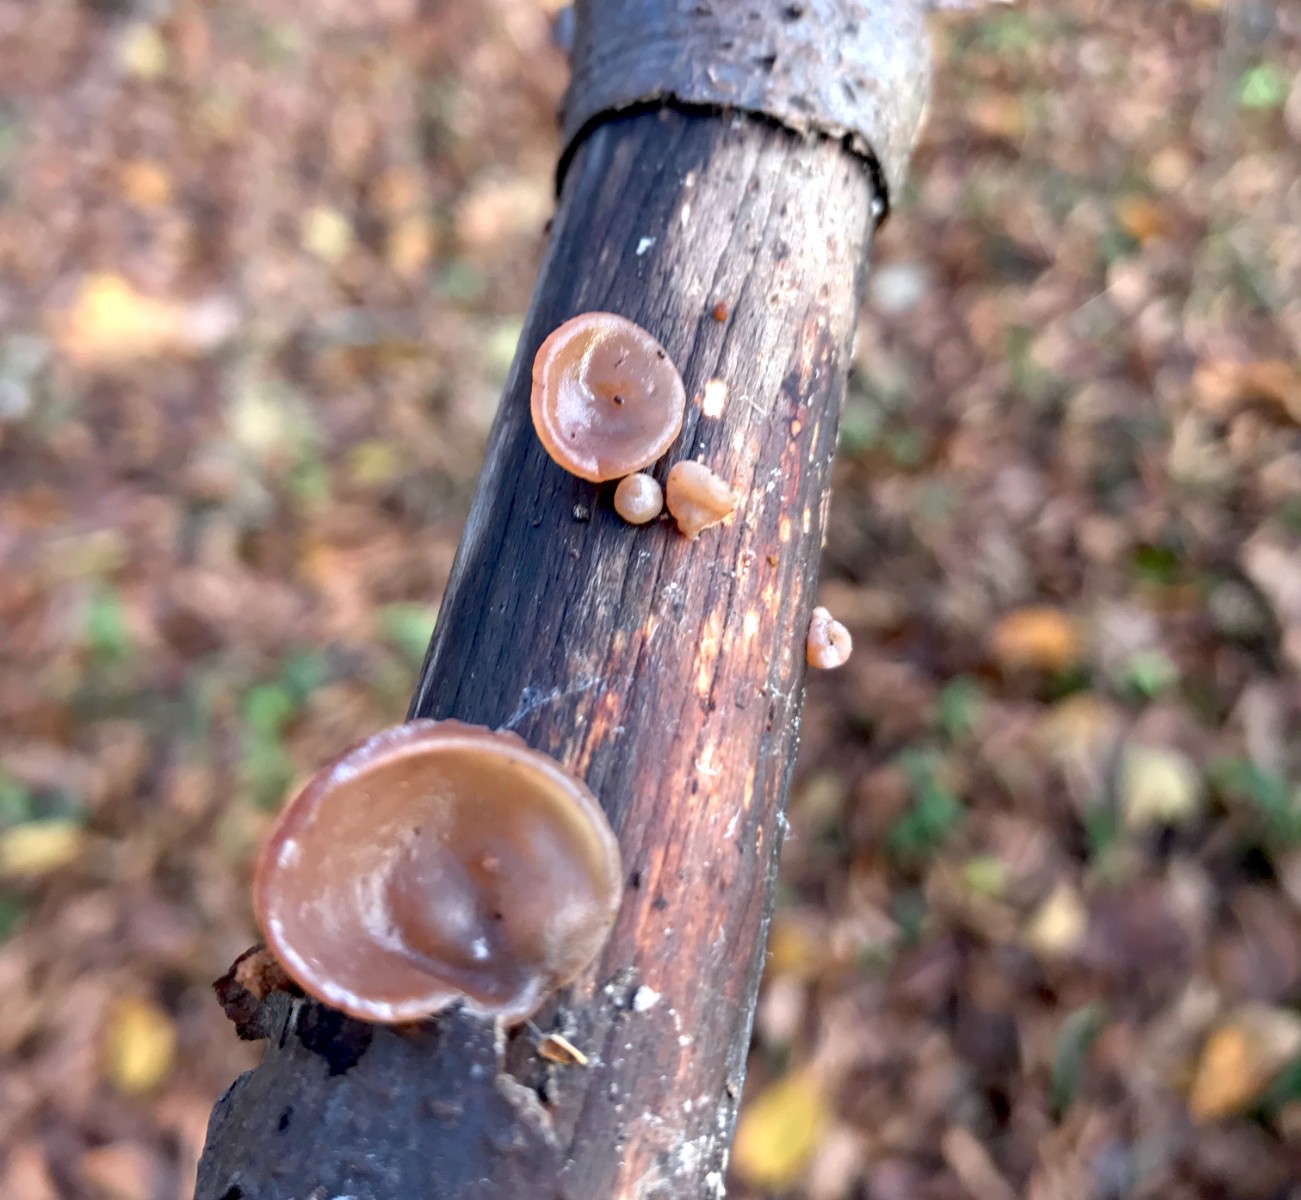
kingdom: Fungi
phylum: Basidiomycota
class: Agaricomycetes
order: Auriculariales
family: Auriculariaceae
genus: Auricularia
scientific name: Auricularia auricula-judae
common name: almindelig judasøre
